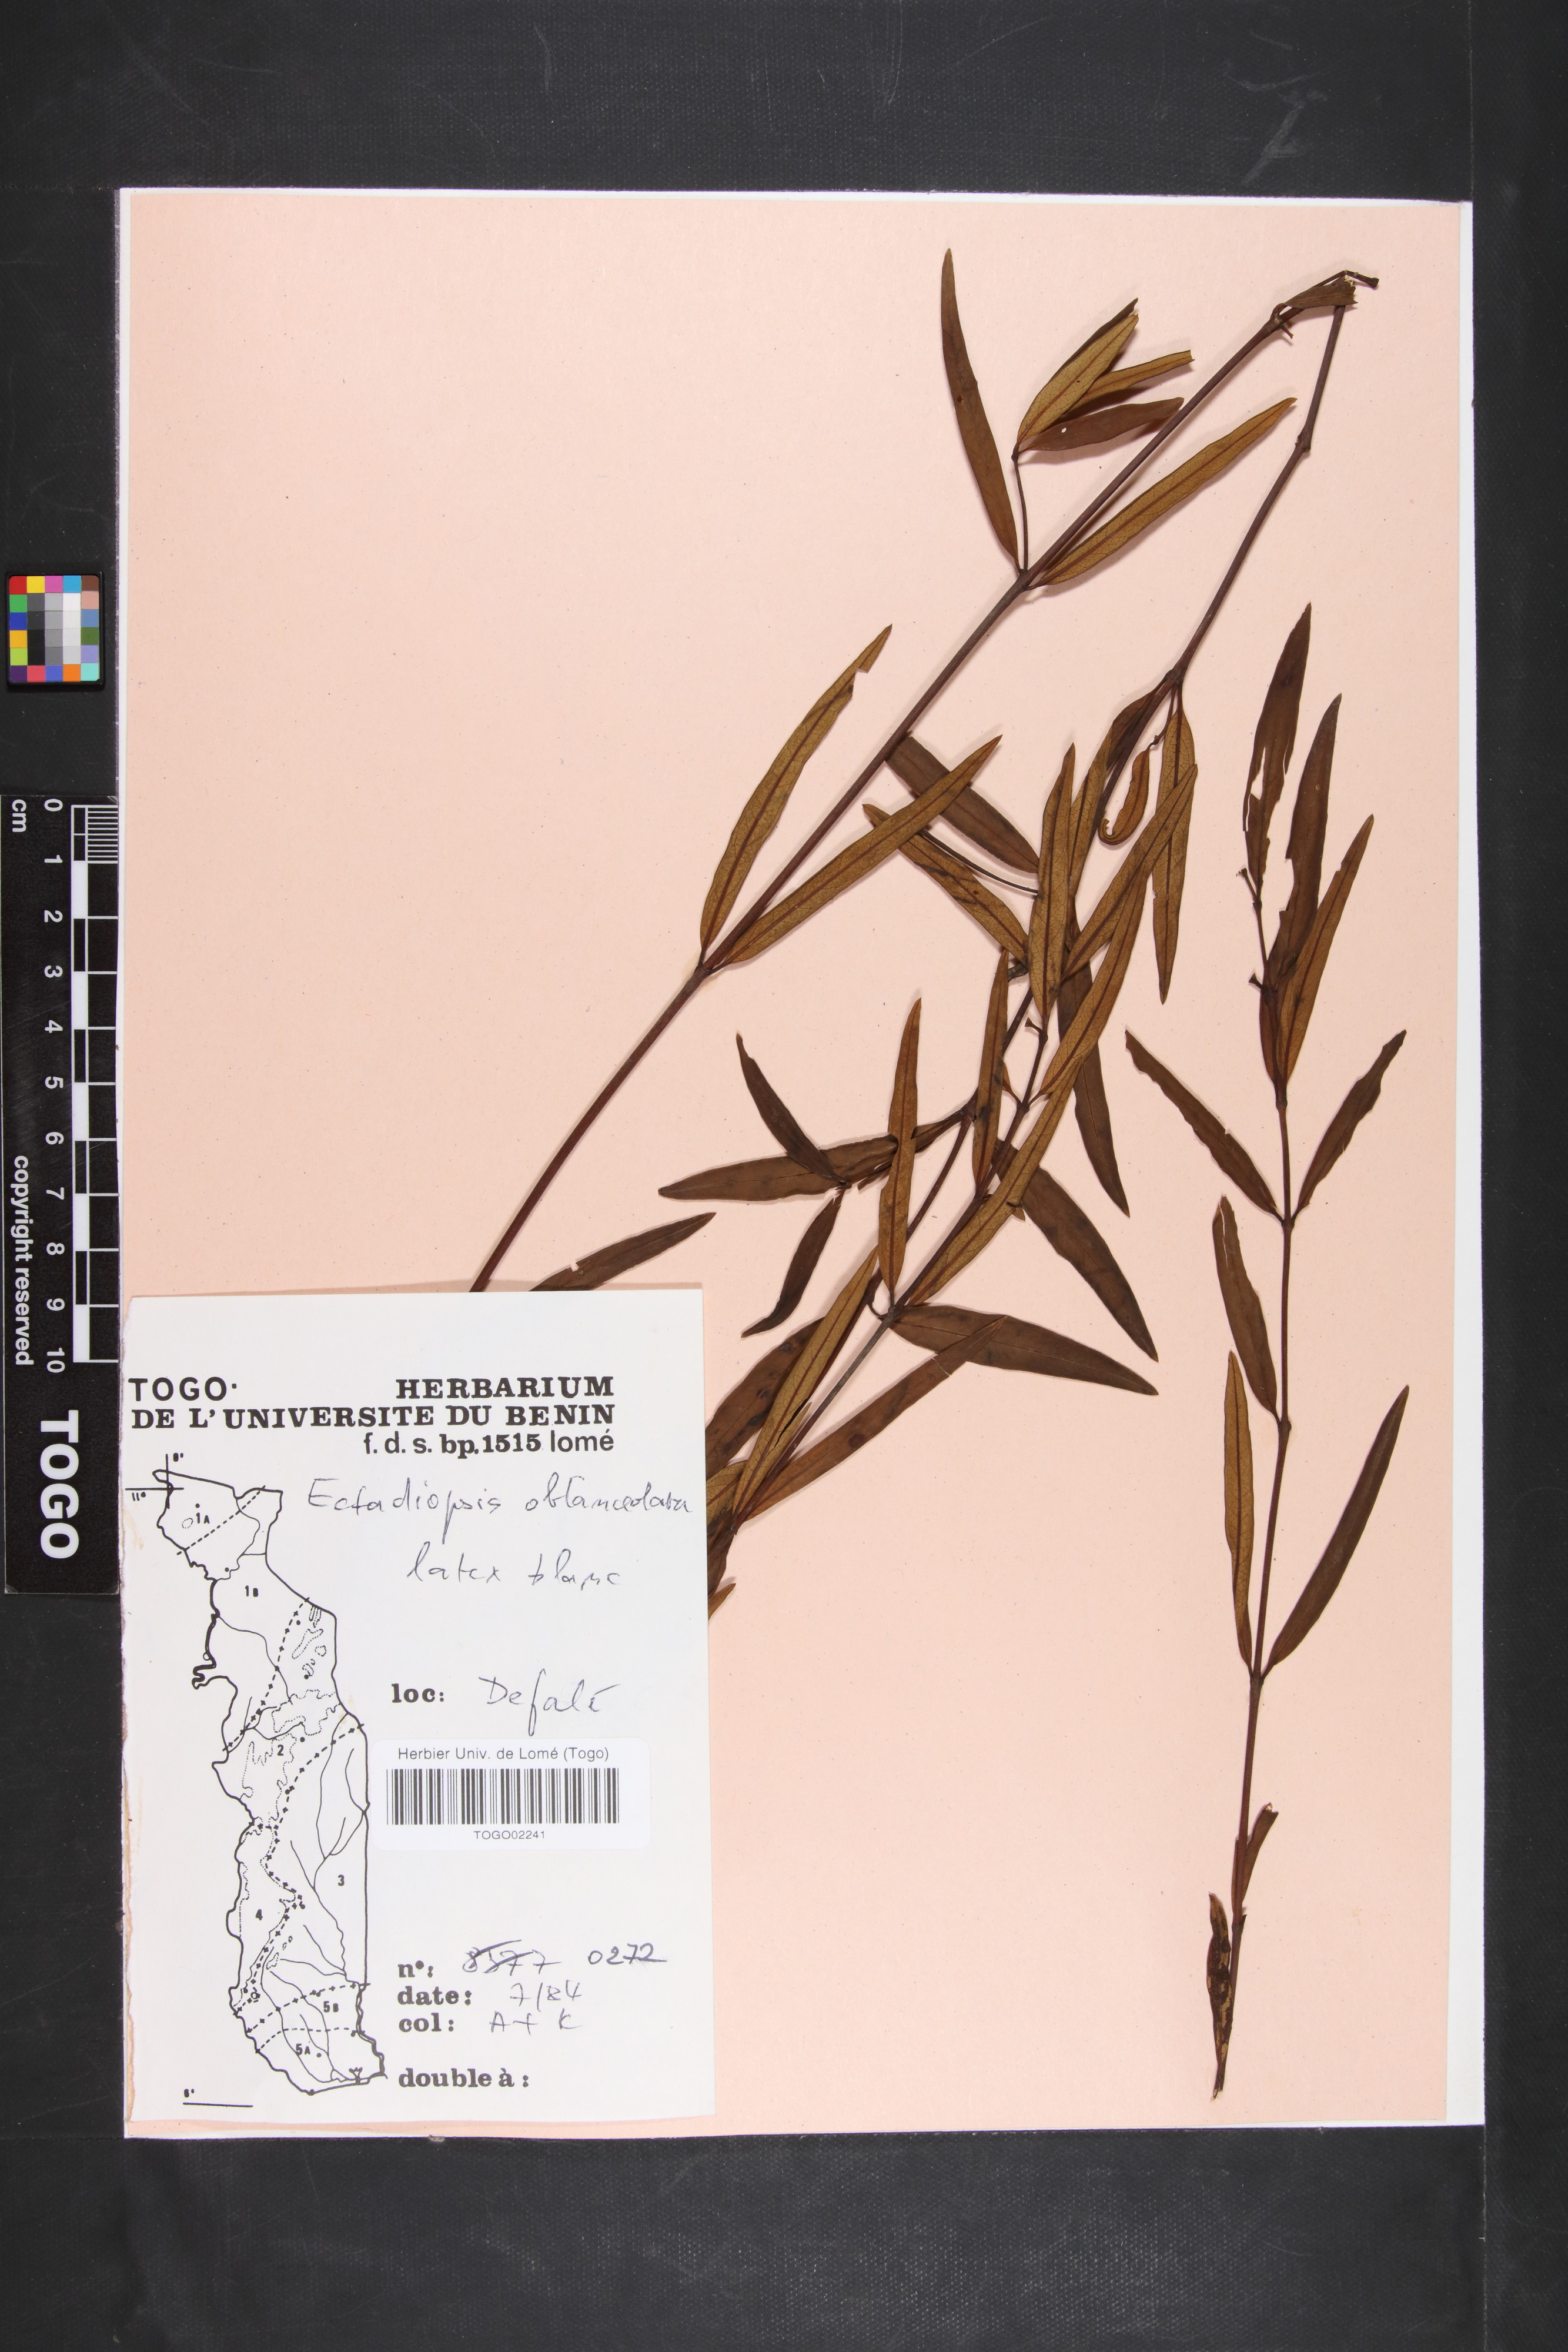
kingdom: Plantae
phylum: Tracheophyta
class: Magnoliopsida
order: Gentianales
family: Apocynaceae
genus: Cryptolepis
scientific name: Cryptolepis
